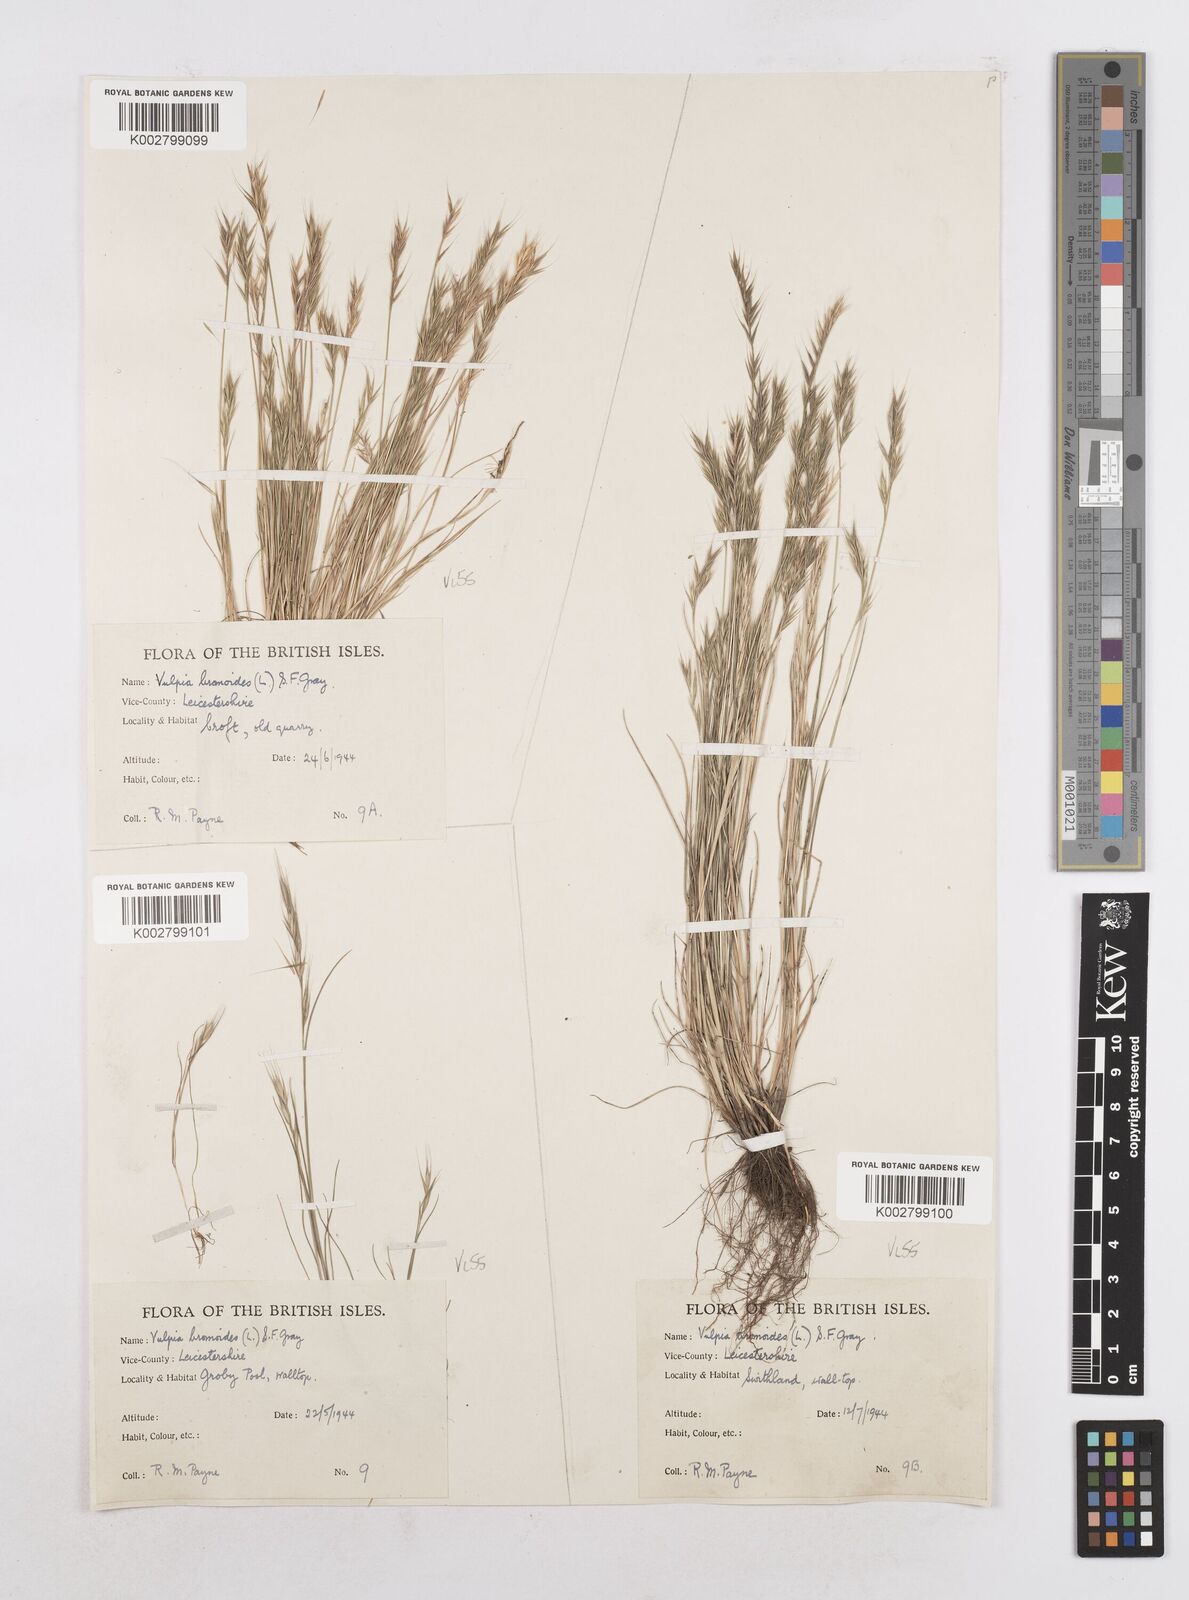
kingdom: Plantae
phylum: Tracheophyta
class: Liliopsida
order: Poales
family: Poaceae
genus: Festuca
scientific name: Festuca bromoides
